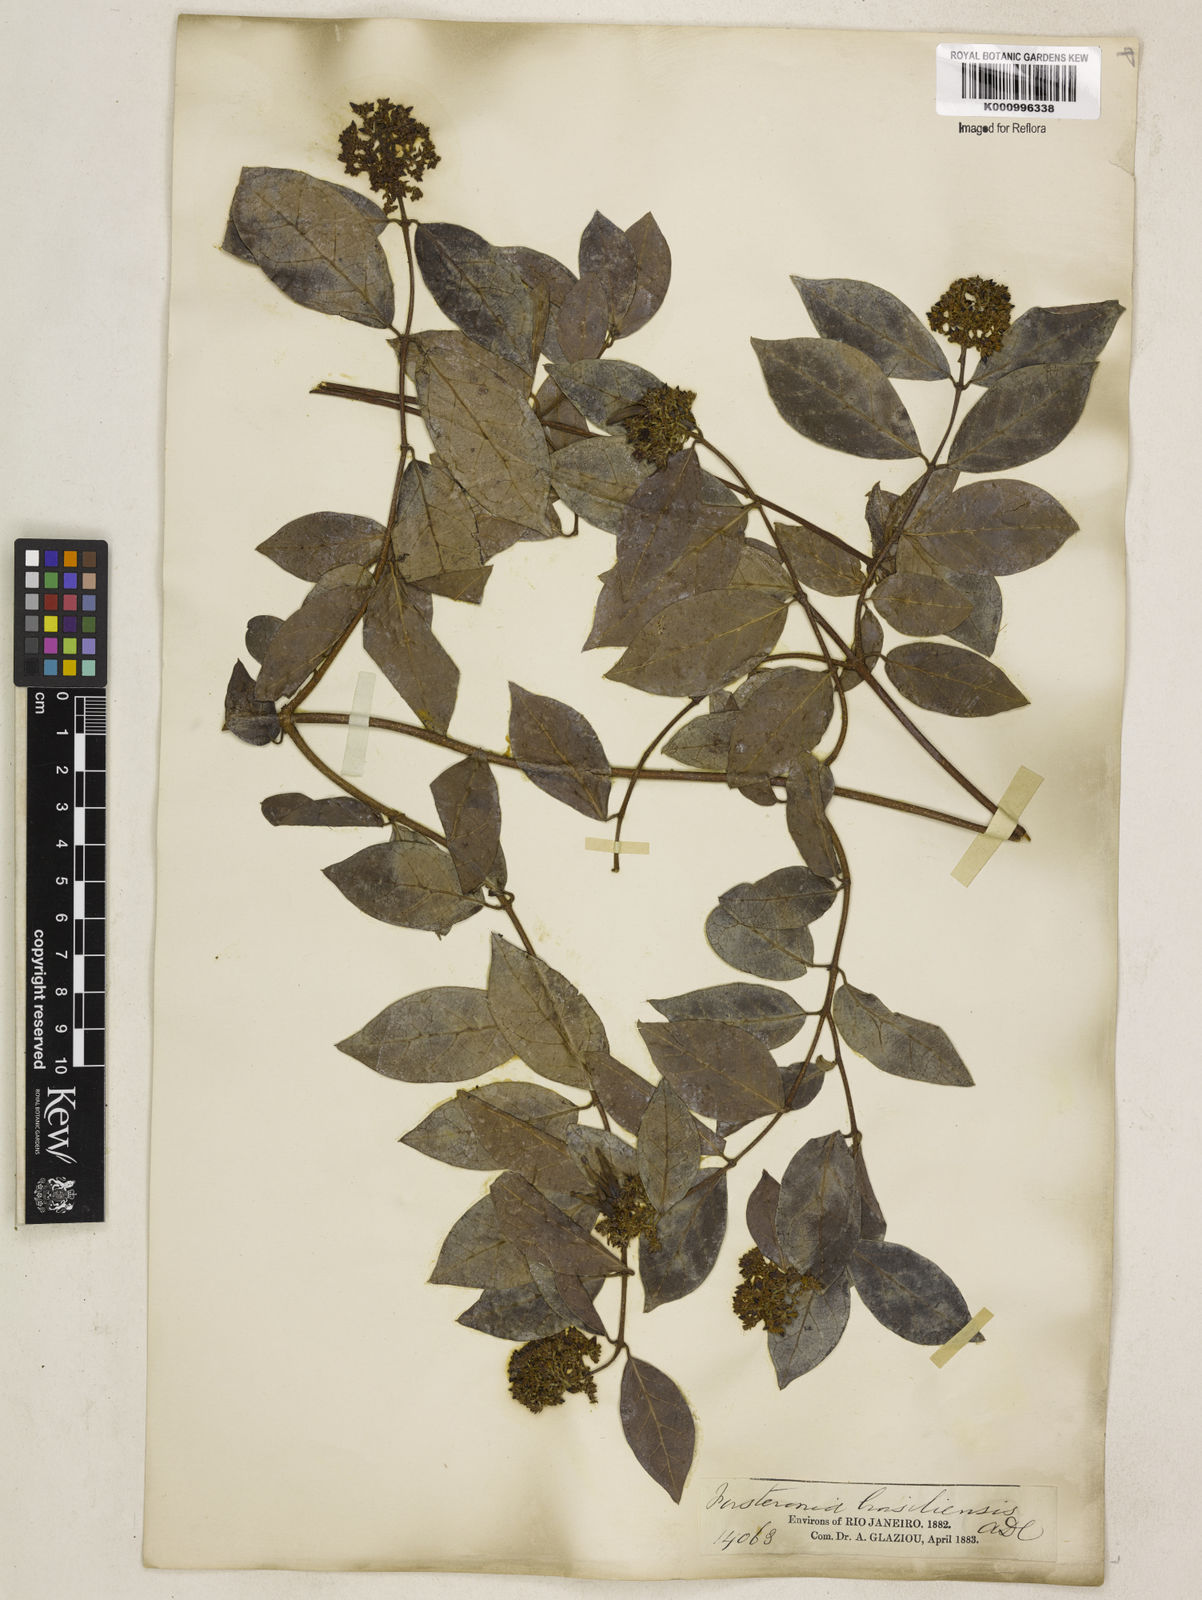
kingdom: Plantae
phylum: Tracheophyta
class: Magnoliopsida
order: Gentianales
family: Apocynaceae
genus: Forsteronia
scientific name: Forsteronia leptocarpa
